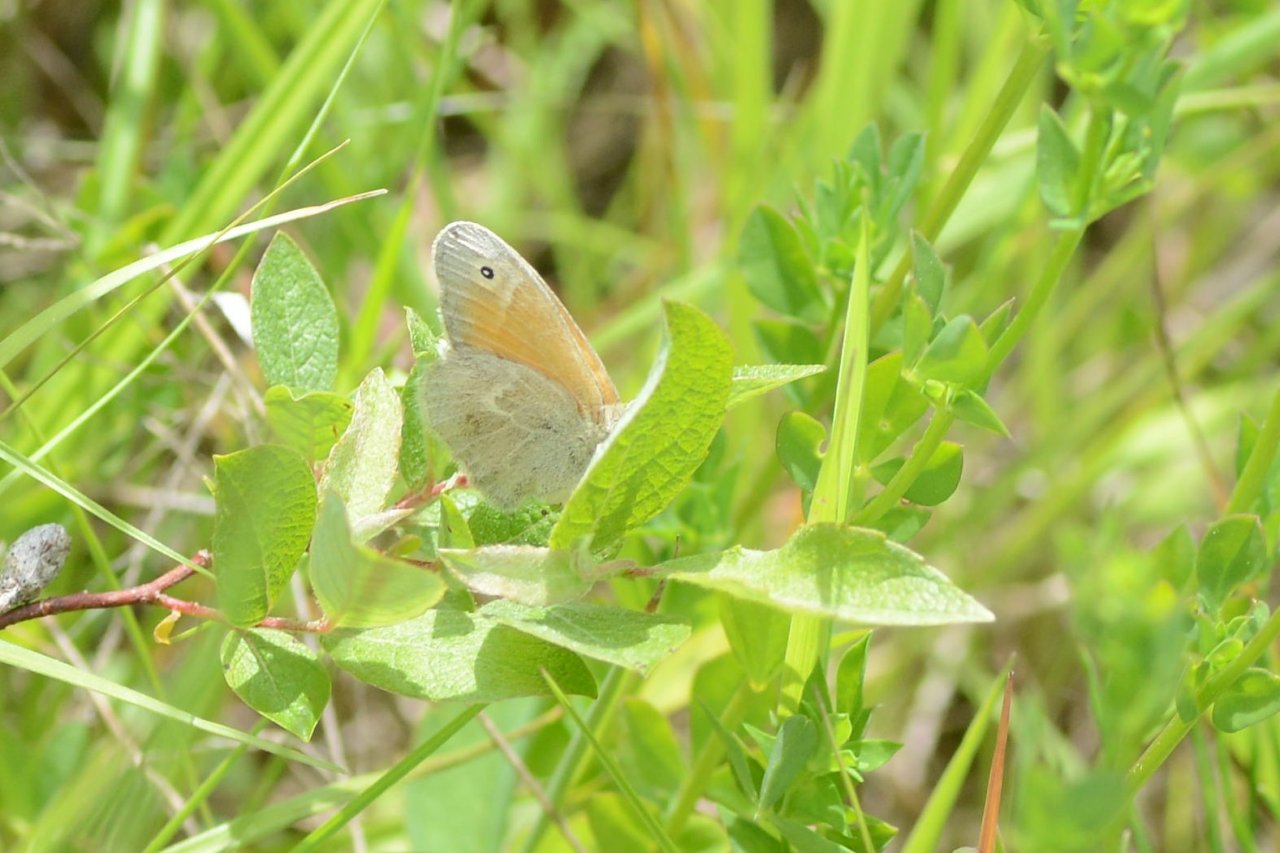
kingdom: Animalia
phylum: Arthropoda
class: Insecta
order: Lepidoptera
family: Nymphalidae
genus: Coenonympha
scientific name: Coenonympha tullia
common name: Large Heath
